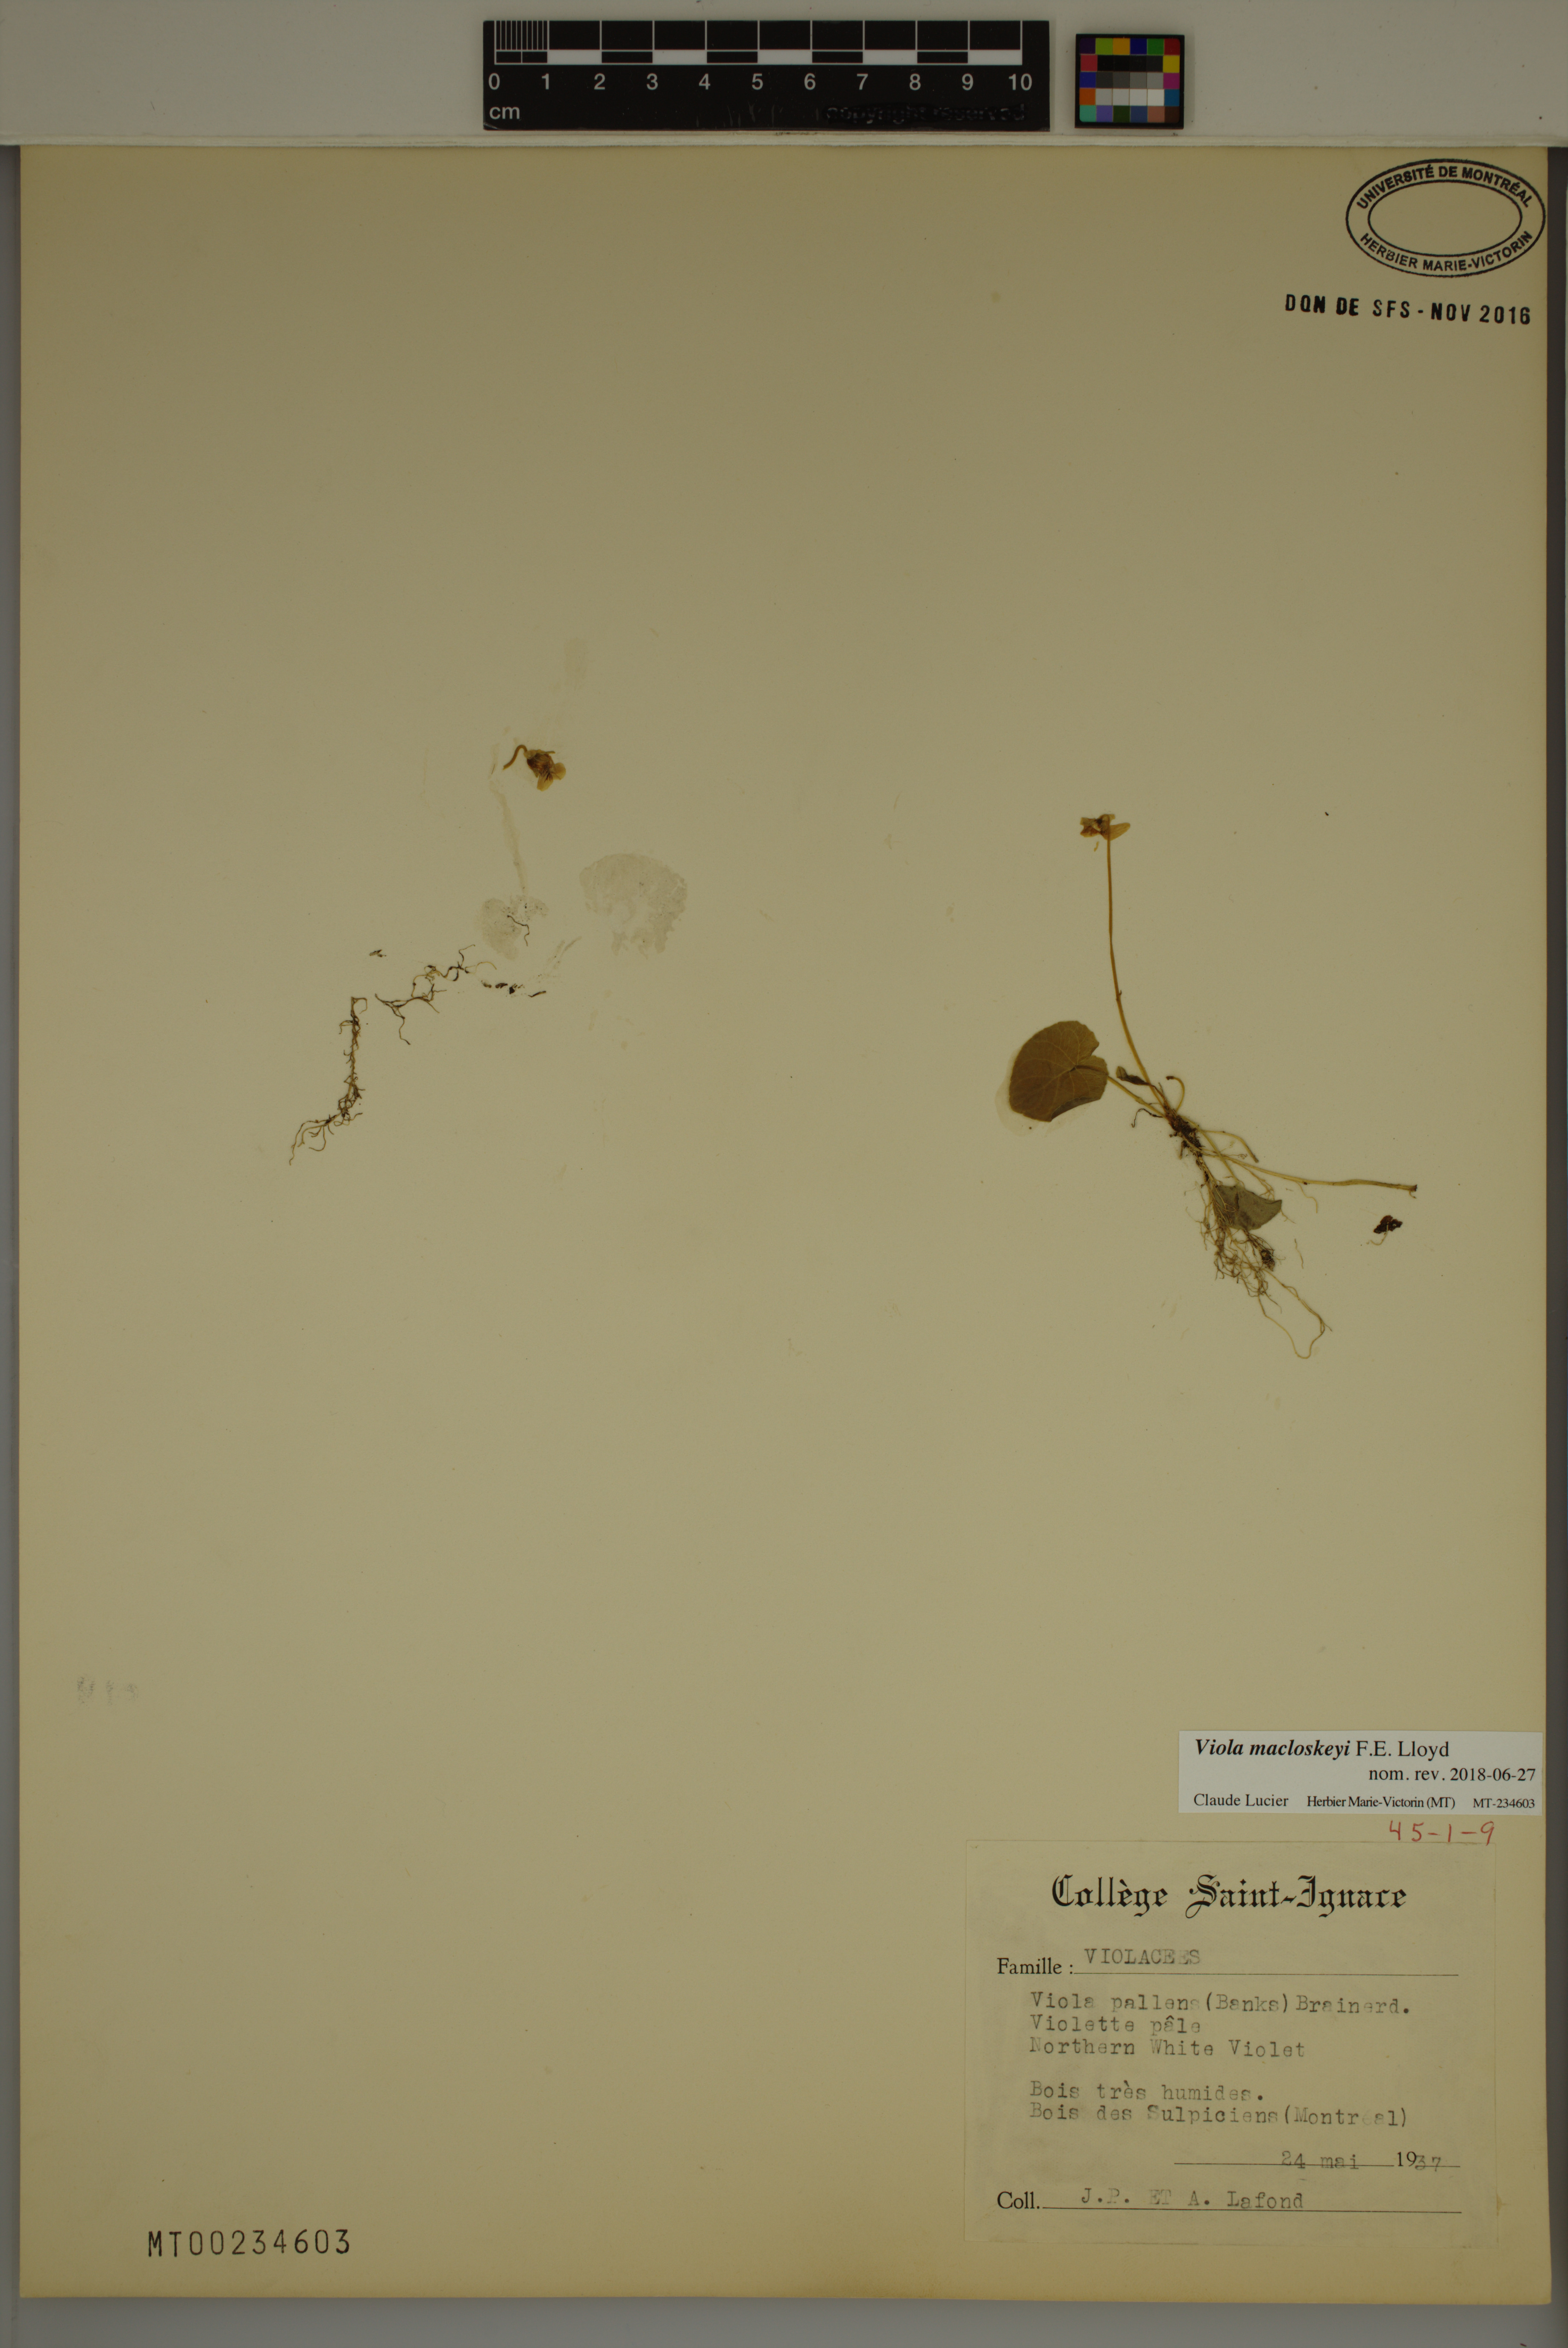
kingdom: Plantae
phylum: Tracheophyta
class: Magnoliopsida
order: Malpighiales
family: Violaceae
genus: Viola
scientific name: Viola macloskeyi
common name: Macloskey's violet
